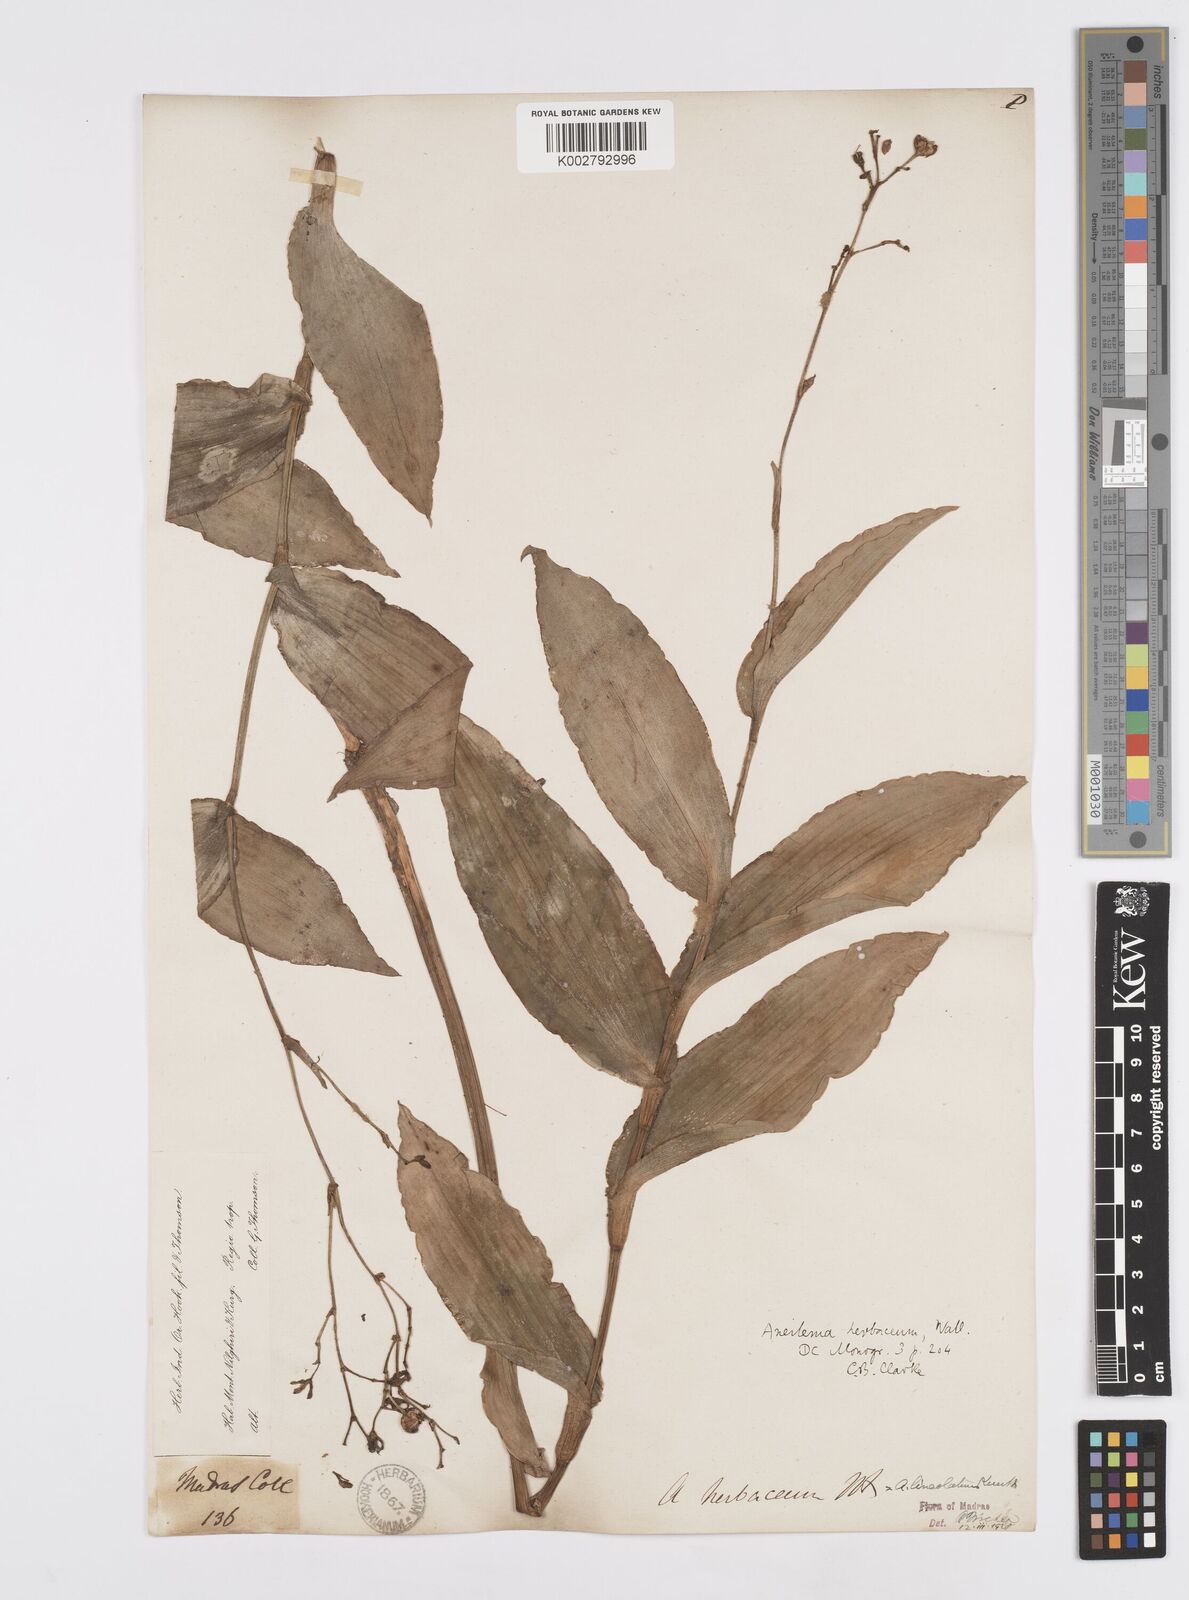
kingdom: Plantae
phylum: Tracheophyta
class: Liliopsida
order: Commelinales
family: Commelinaceae
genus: Murdannia
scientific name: Murdannia
